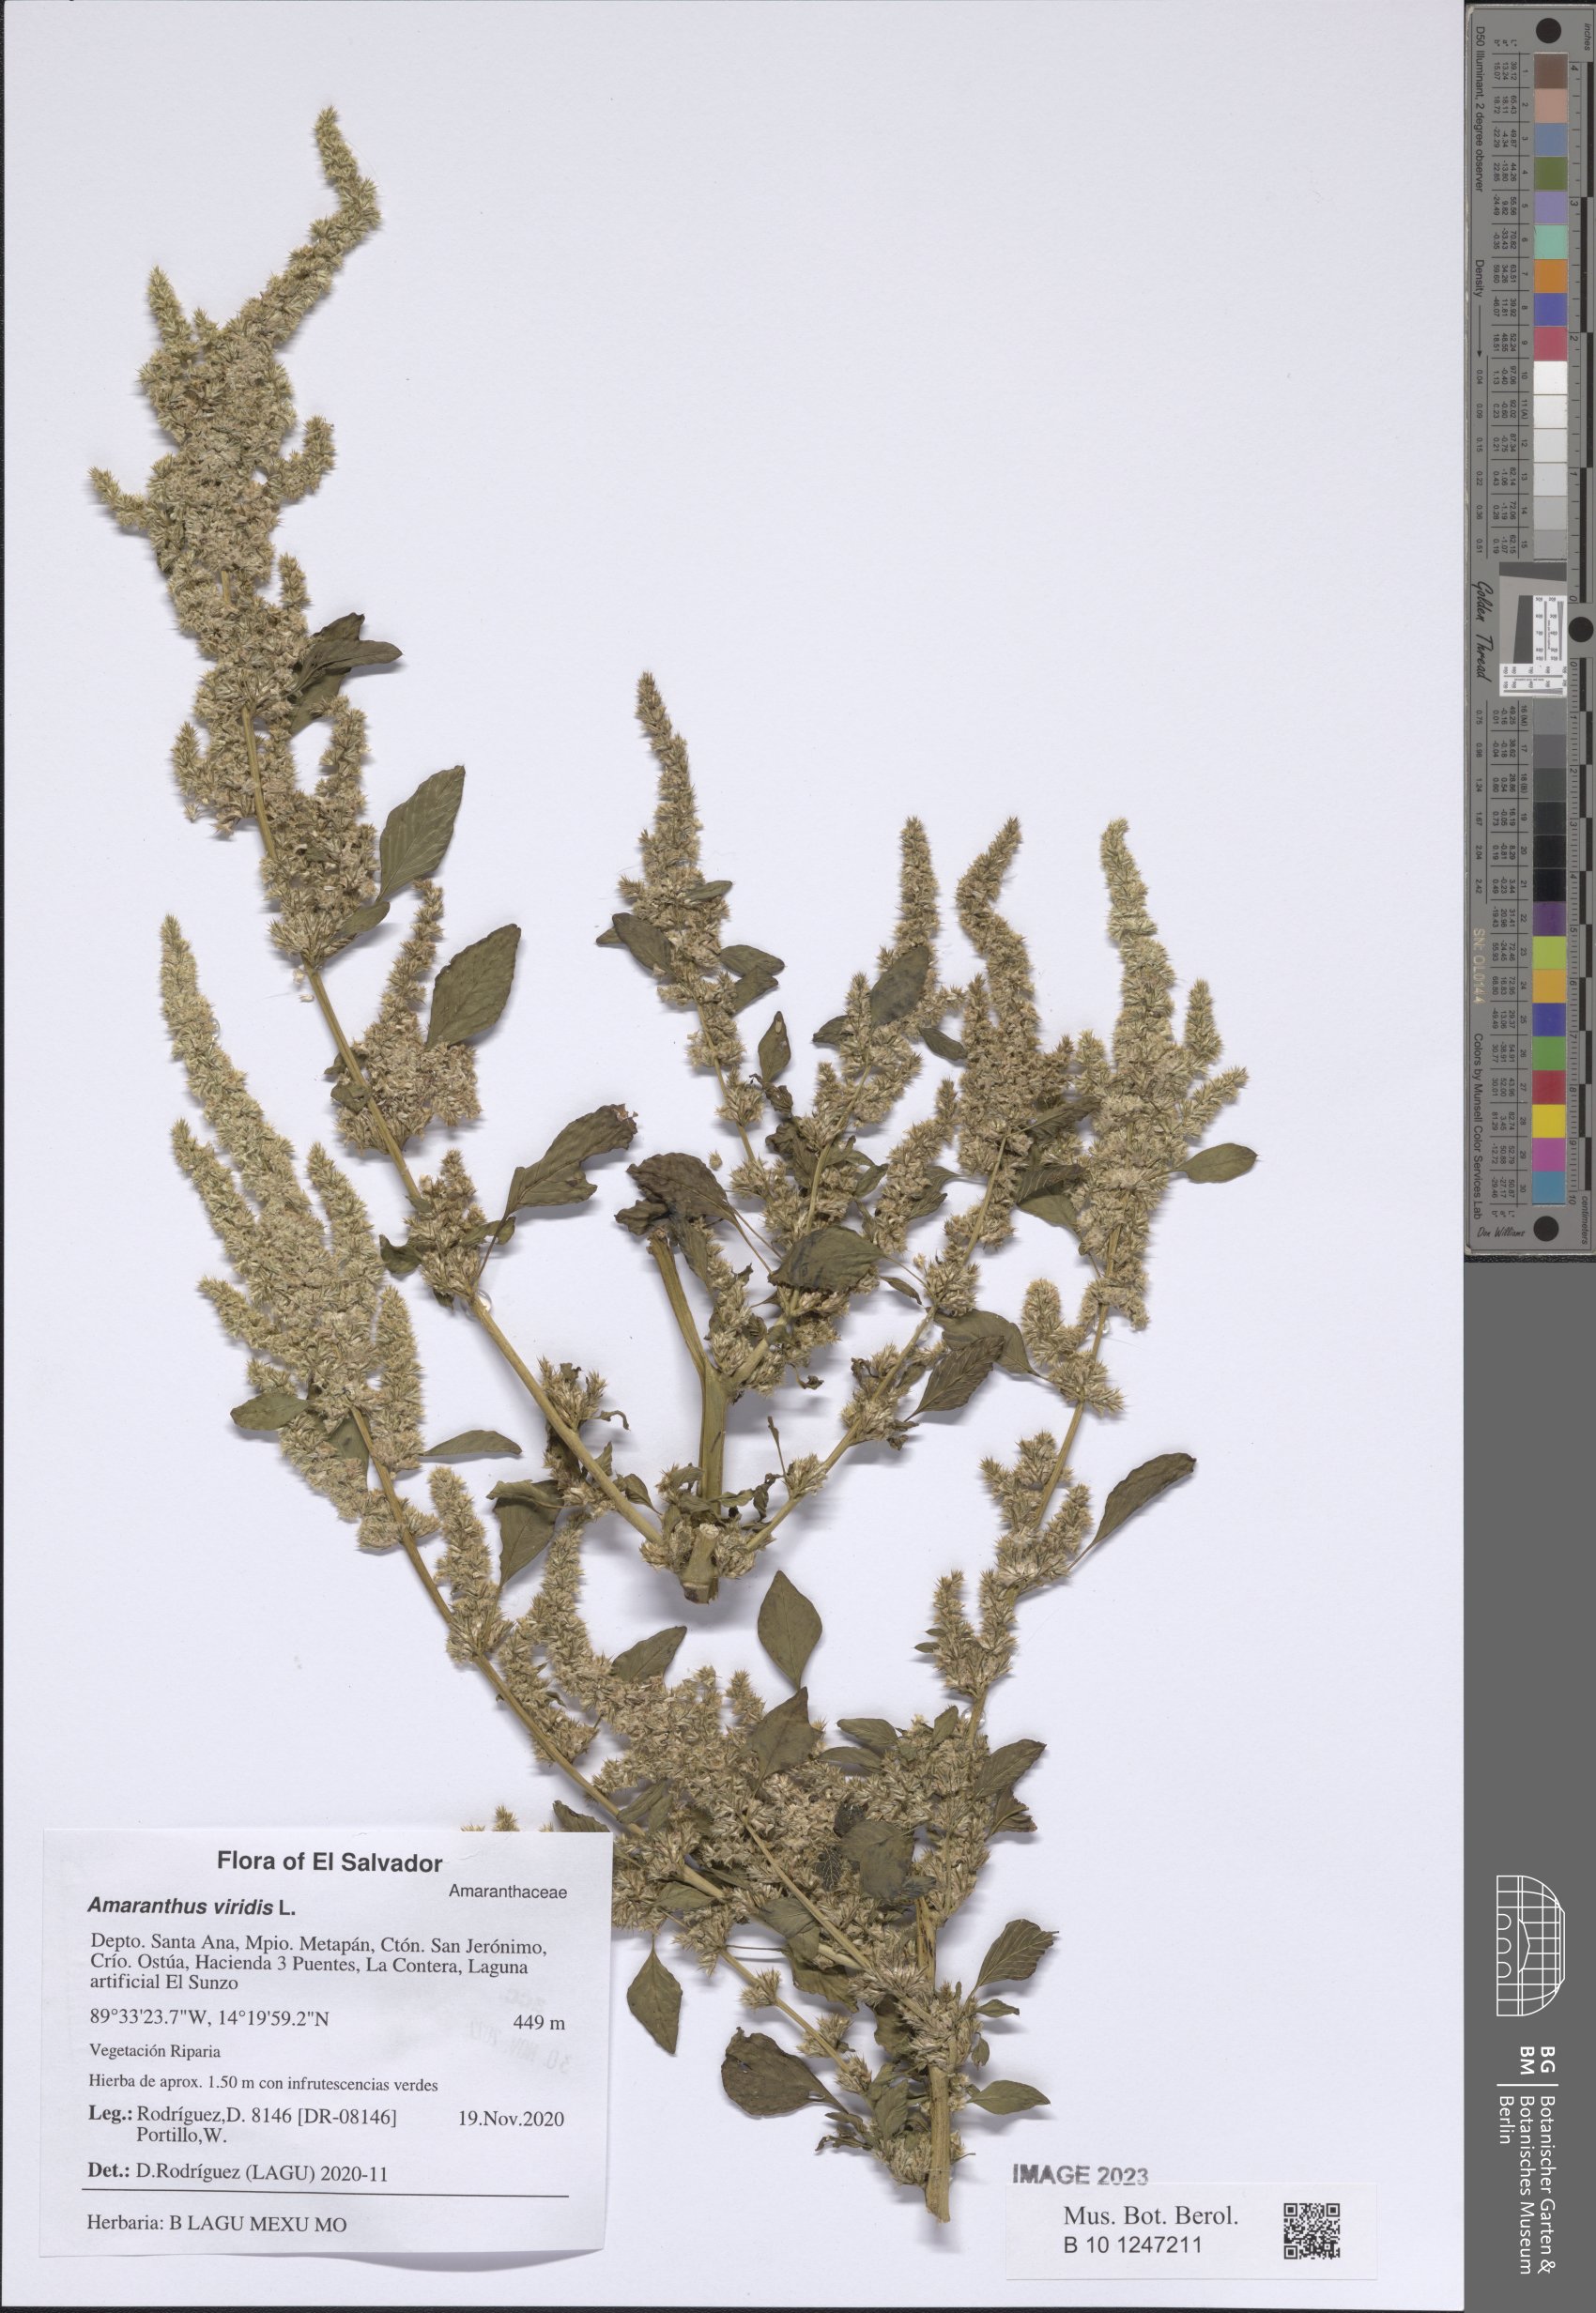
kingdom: Plantae
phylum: Tracheophyta
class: Magnoliopsida
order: Caryophyllales
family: Amaranthaceae
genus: Amaranthus
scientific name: Amaranthus viridis
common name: Slender amaranth
